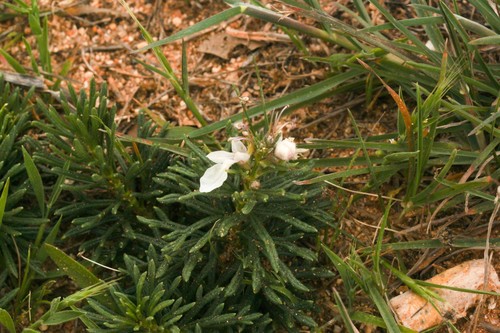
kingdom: Plantae
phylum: Tracheophyta
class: Magnoliopsida
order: Lamiales
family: Lamiaceae
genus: Teucrium
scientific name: Teucrium pseudochamaepitys
